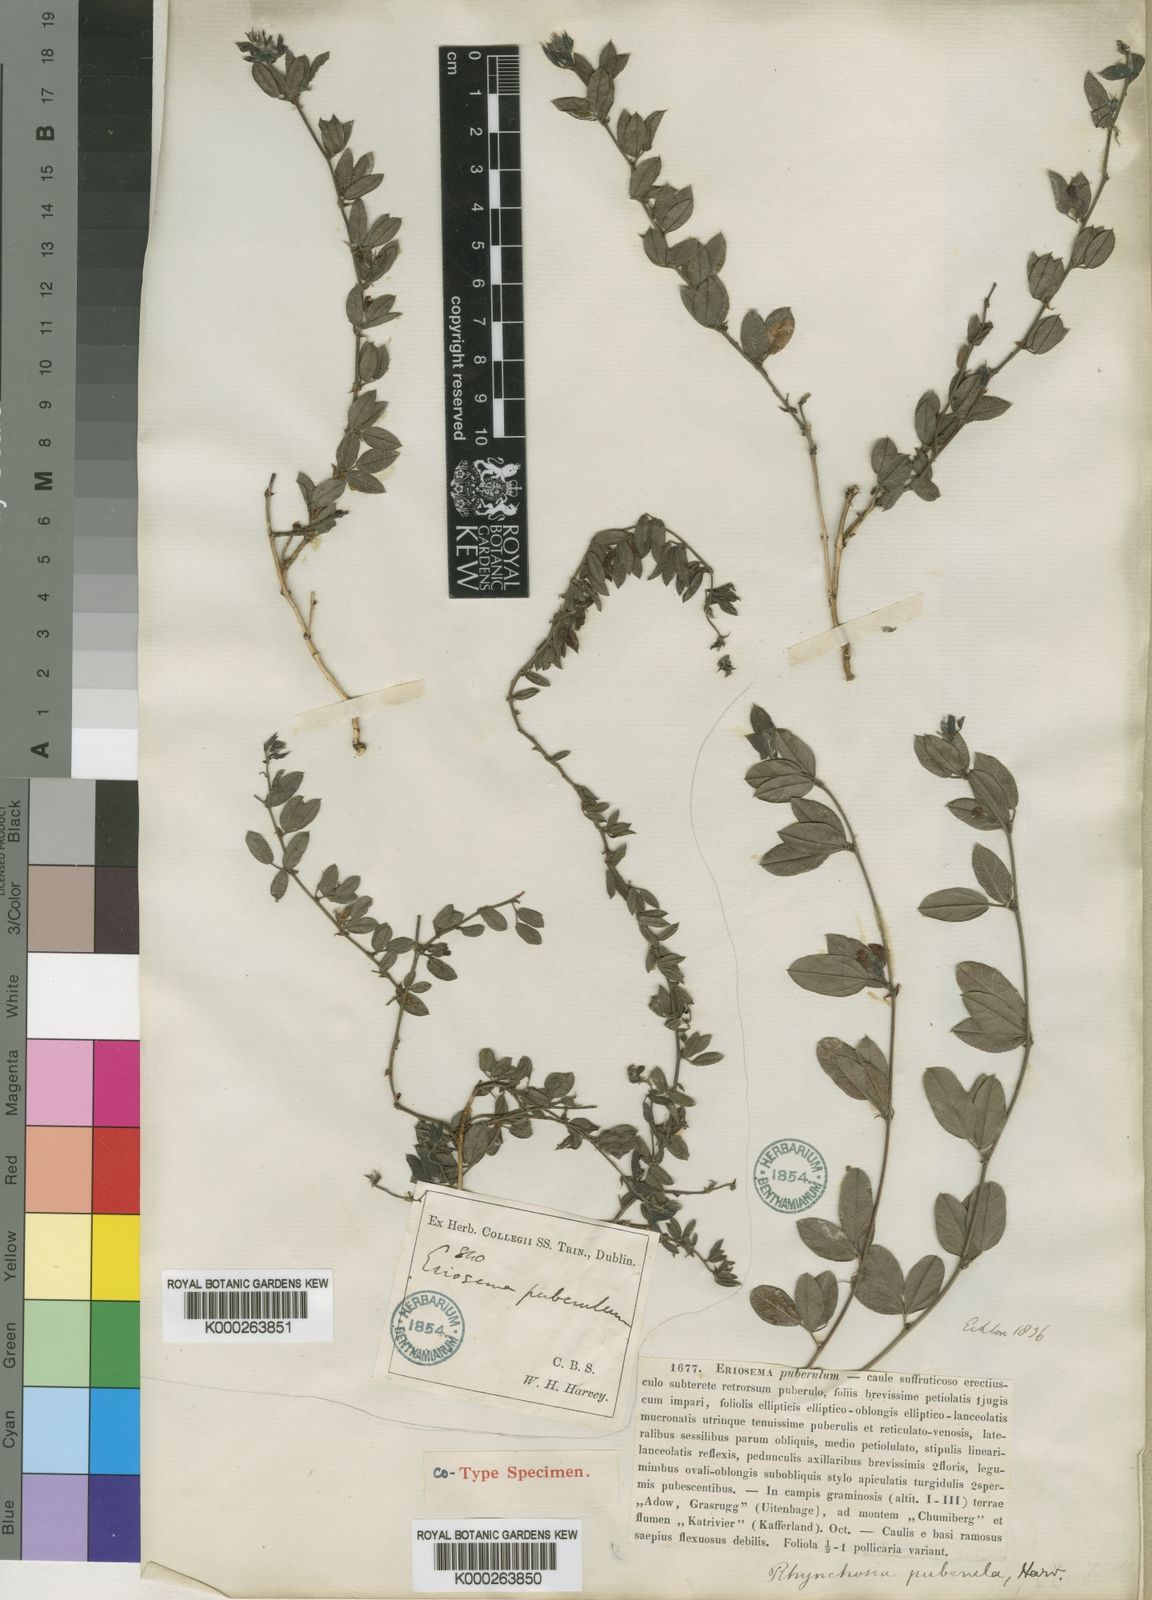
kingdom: Plantae
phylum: Tracheophyta
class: Magnoliopsida
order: Fabales
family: Fabaceae
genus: Rhynchosia
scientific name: Rhynchosia
